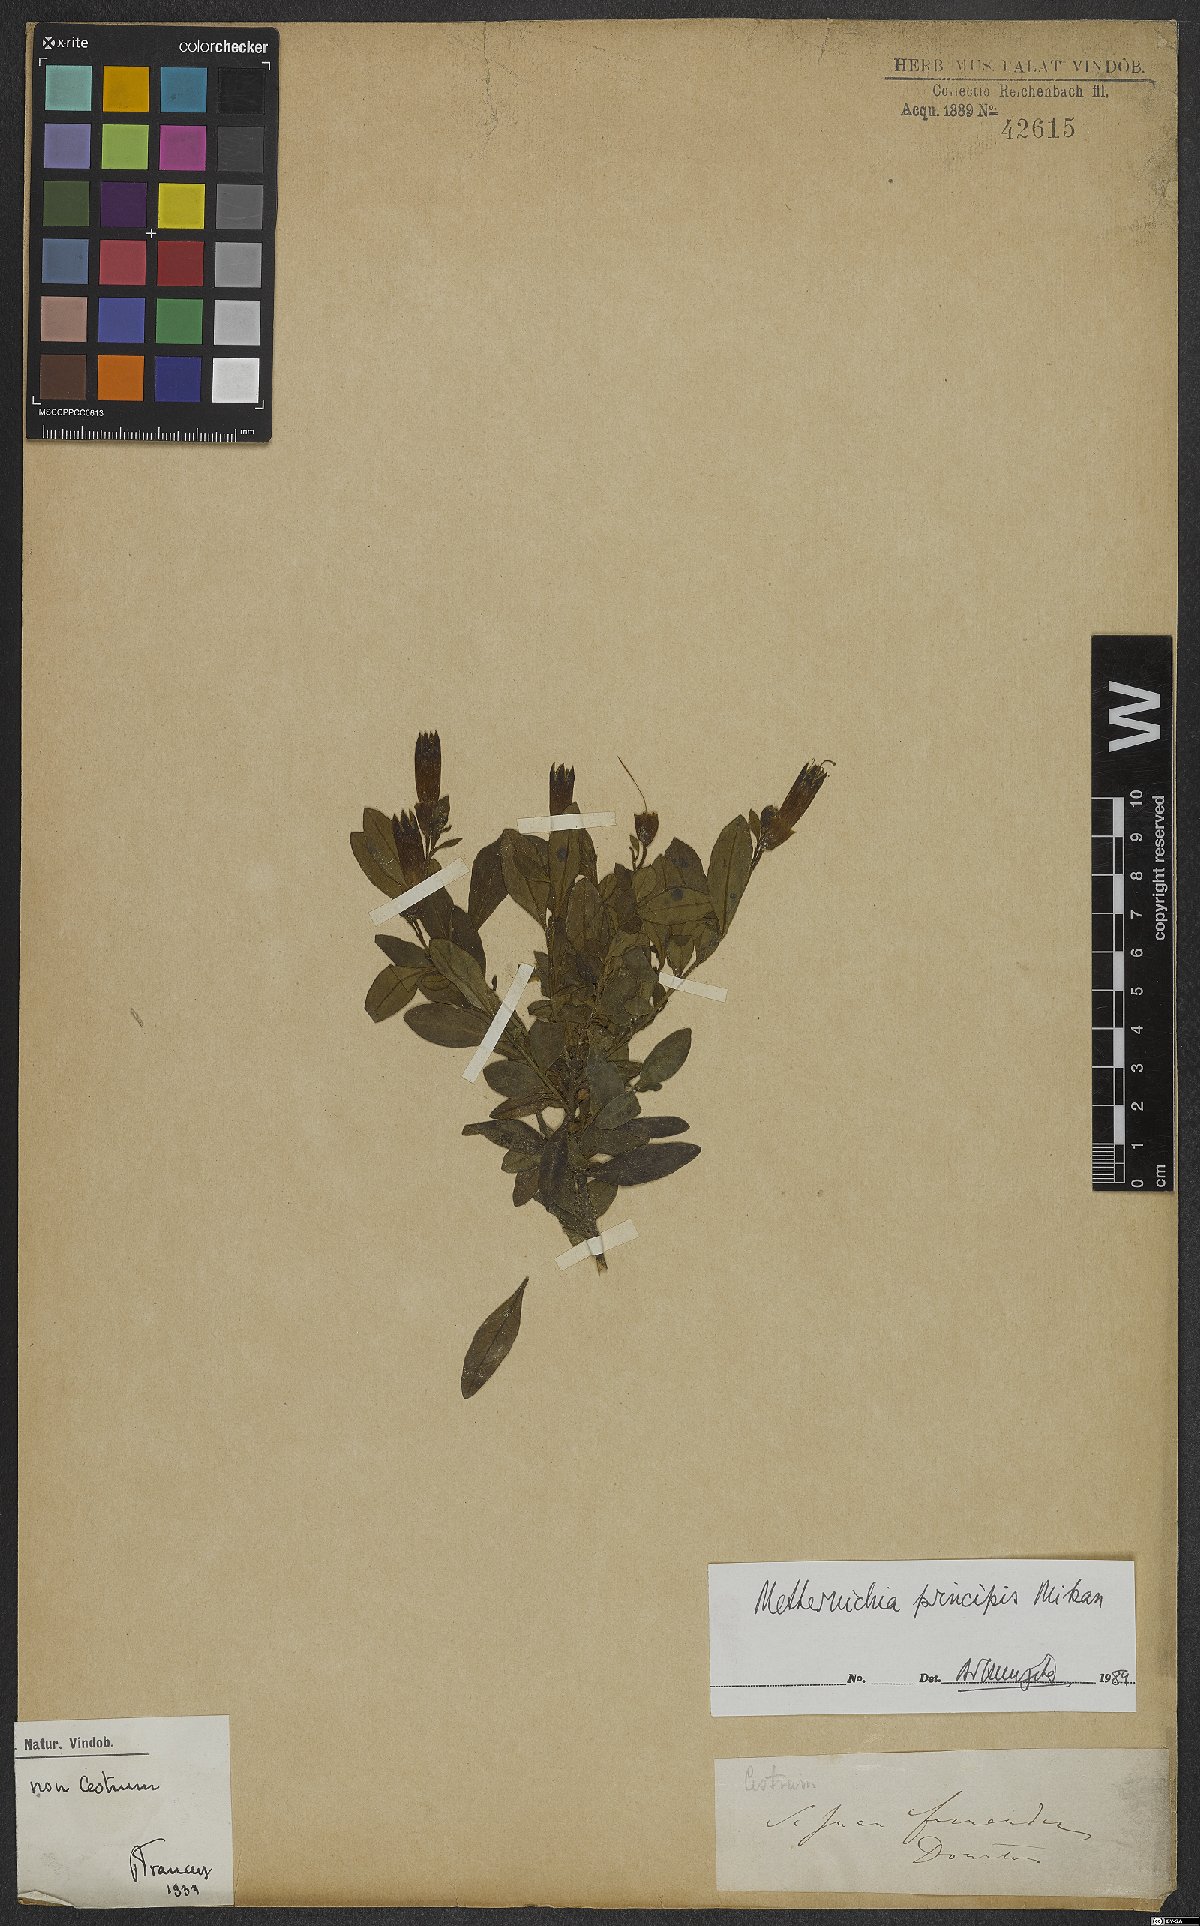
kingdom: Plantae
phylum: Tracheophyta
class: Magnoliopsida
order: Solanales
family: Solanaceae
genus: Metternichia
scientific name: Metternichia principis
